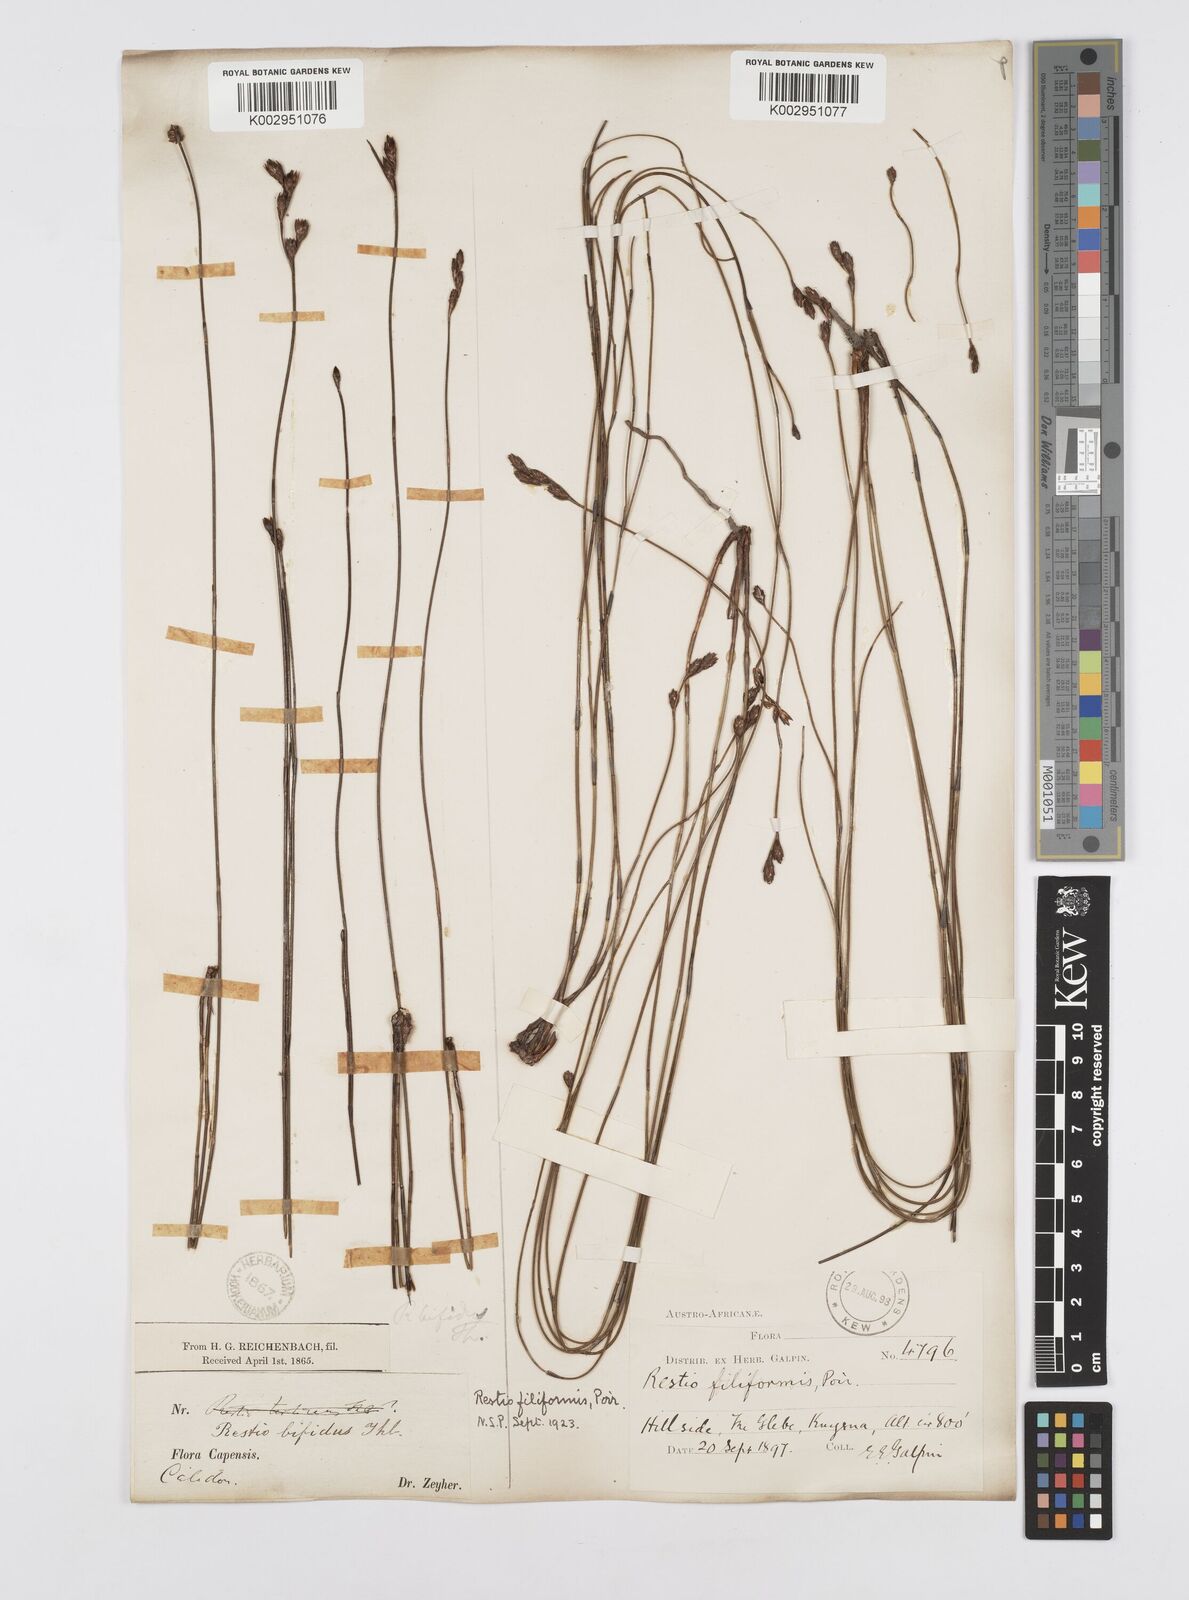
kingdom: Plantae
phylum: Tracheophyta
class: Liliopsida
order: Poales
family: Restionaceae
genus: Restio
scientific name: Restio filiformis
